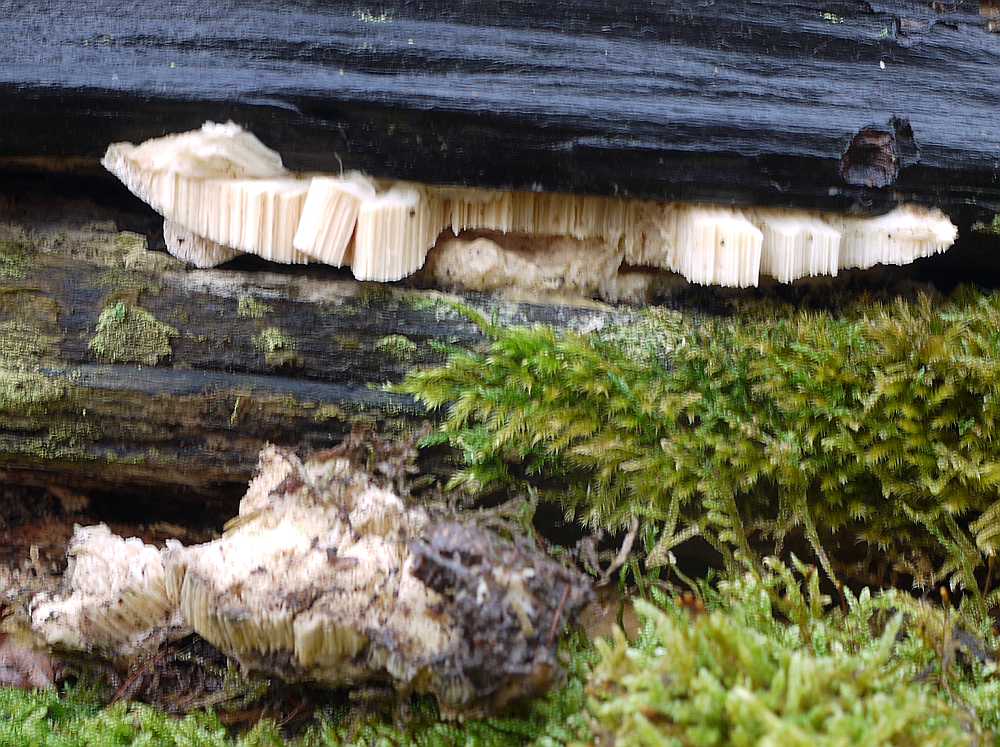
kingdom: Fungi
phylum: Basidiomycota
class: Agaricomycetes
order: Polyporales
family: Cerrenaceae
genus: Pseudospongipellis
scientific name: Pseudospongipellis delectans
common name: labyrint-skumporesvamp
